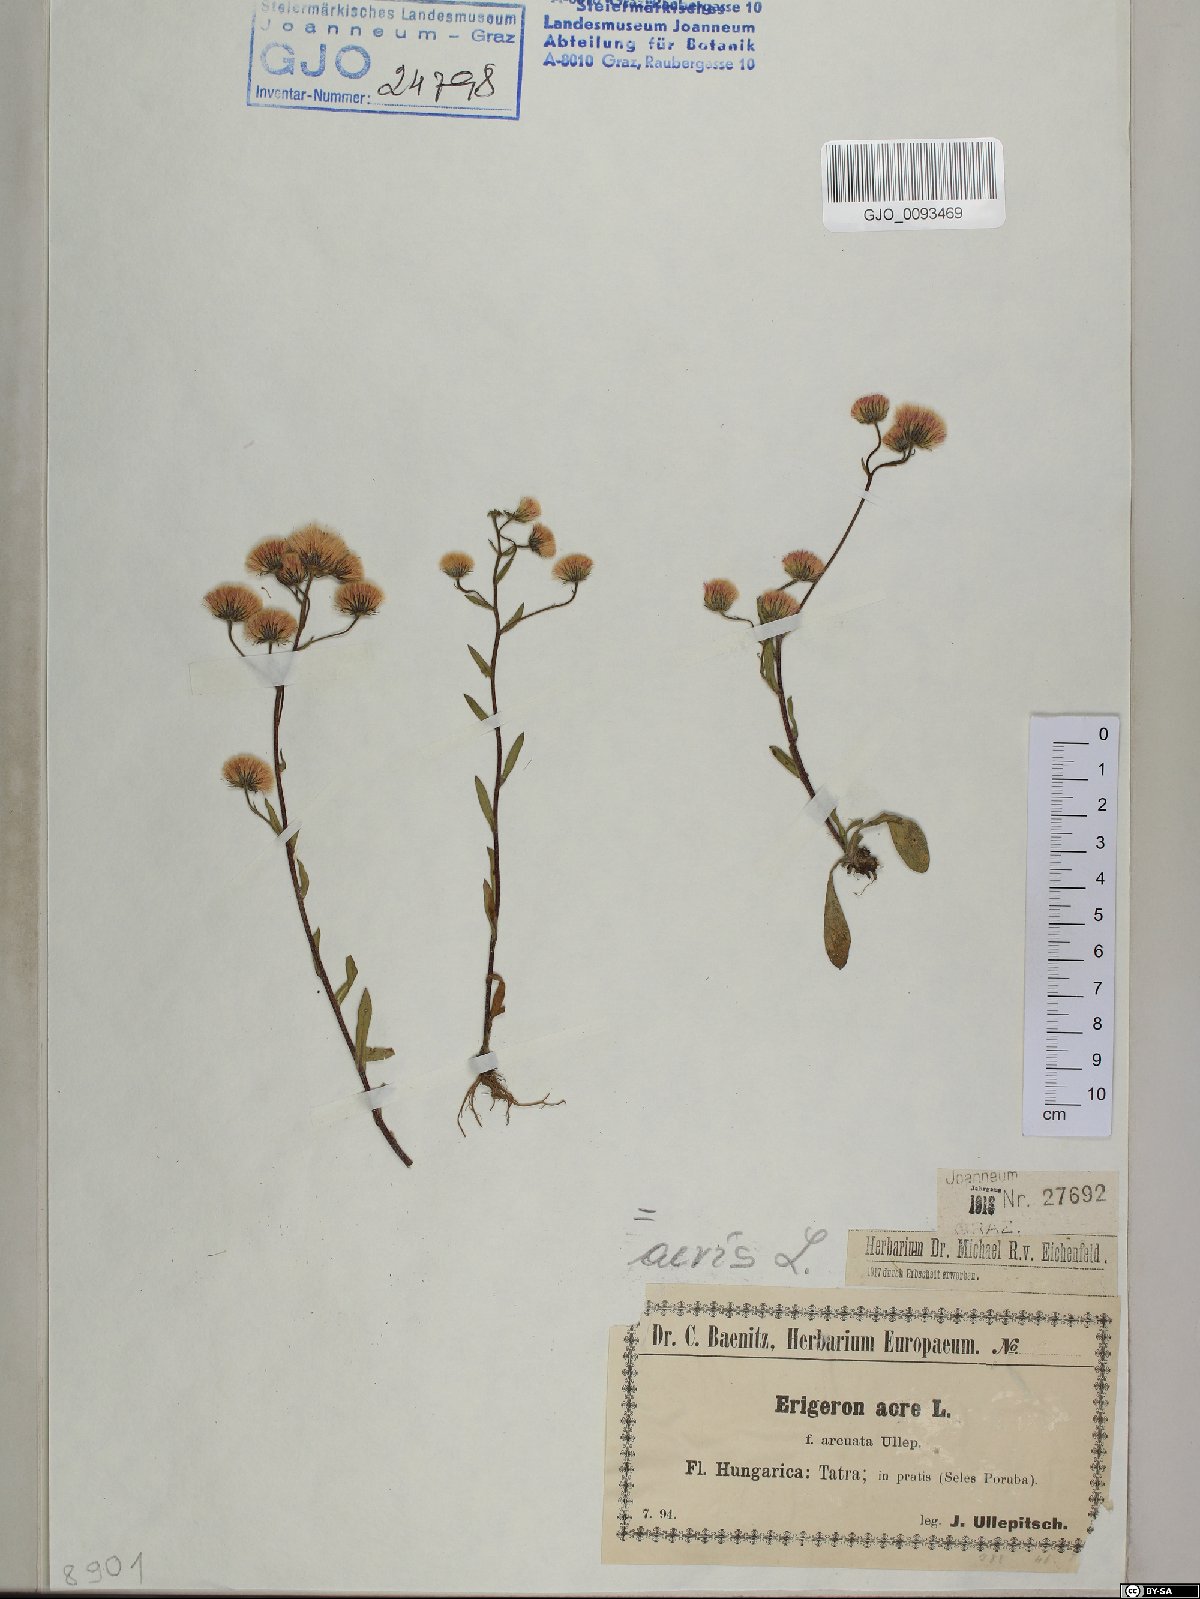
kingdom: Plantae
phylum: Tracheophyta
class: Magnoliopsida
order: Asterales
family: Asteraceae
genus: Erigeron
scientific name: Erigeron acris
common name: Blue fleabane
